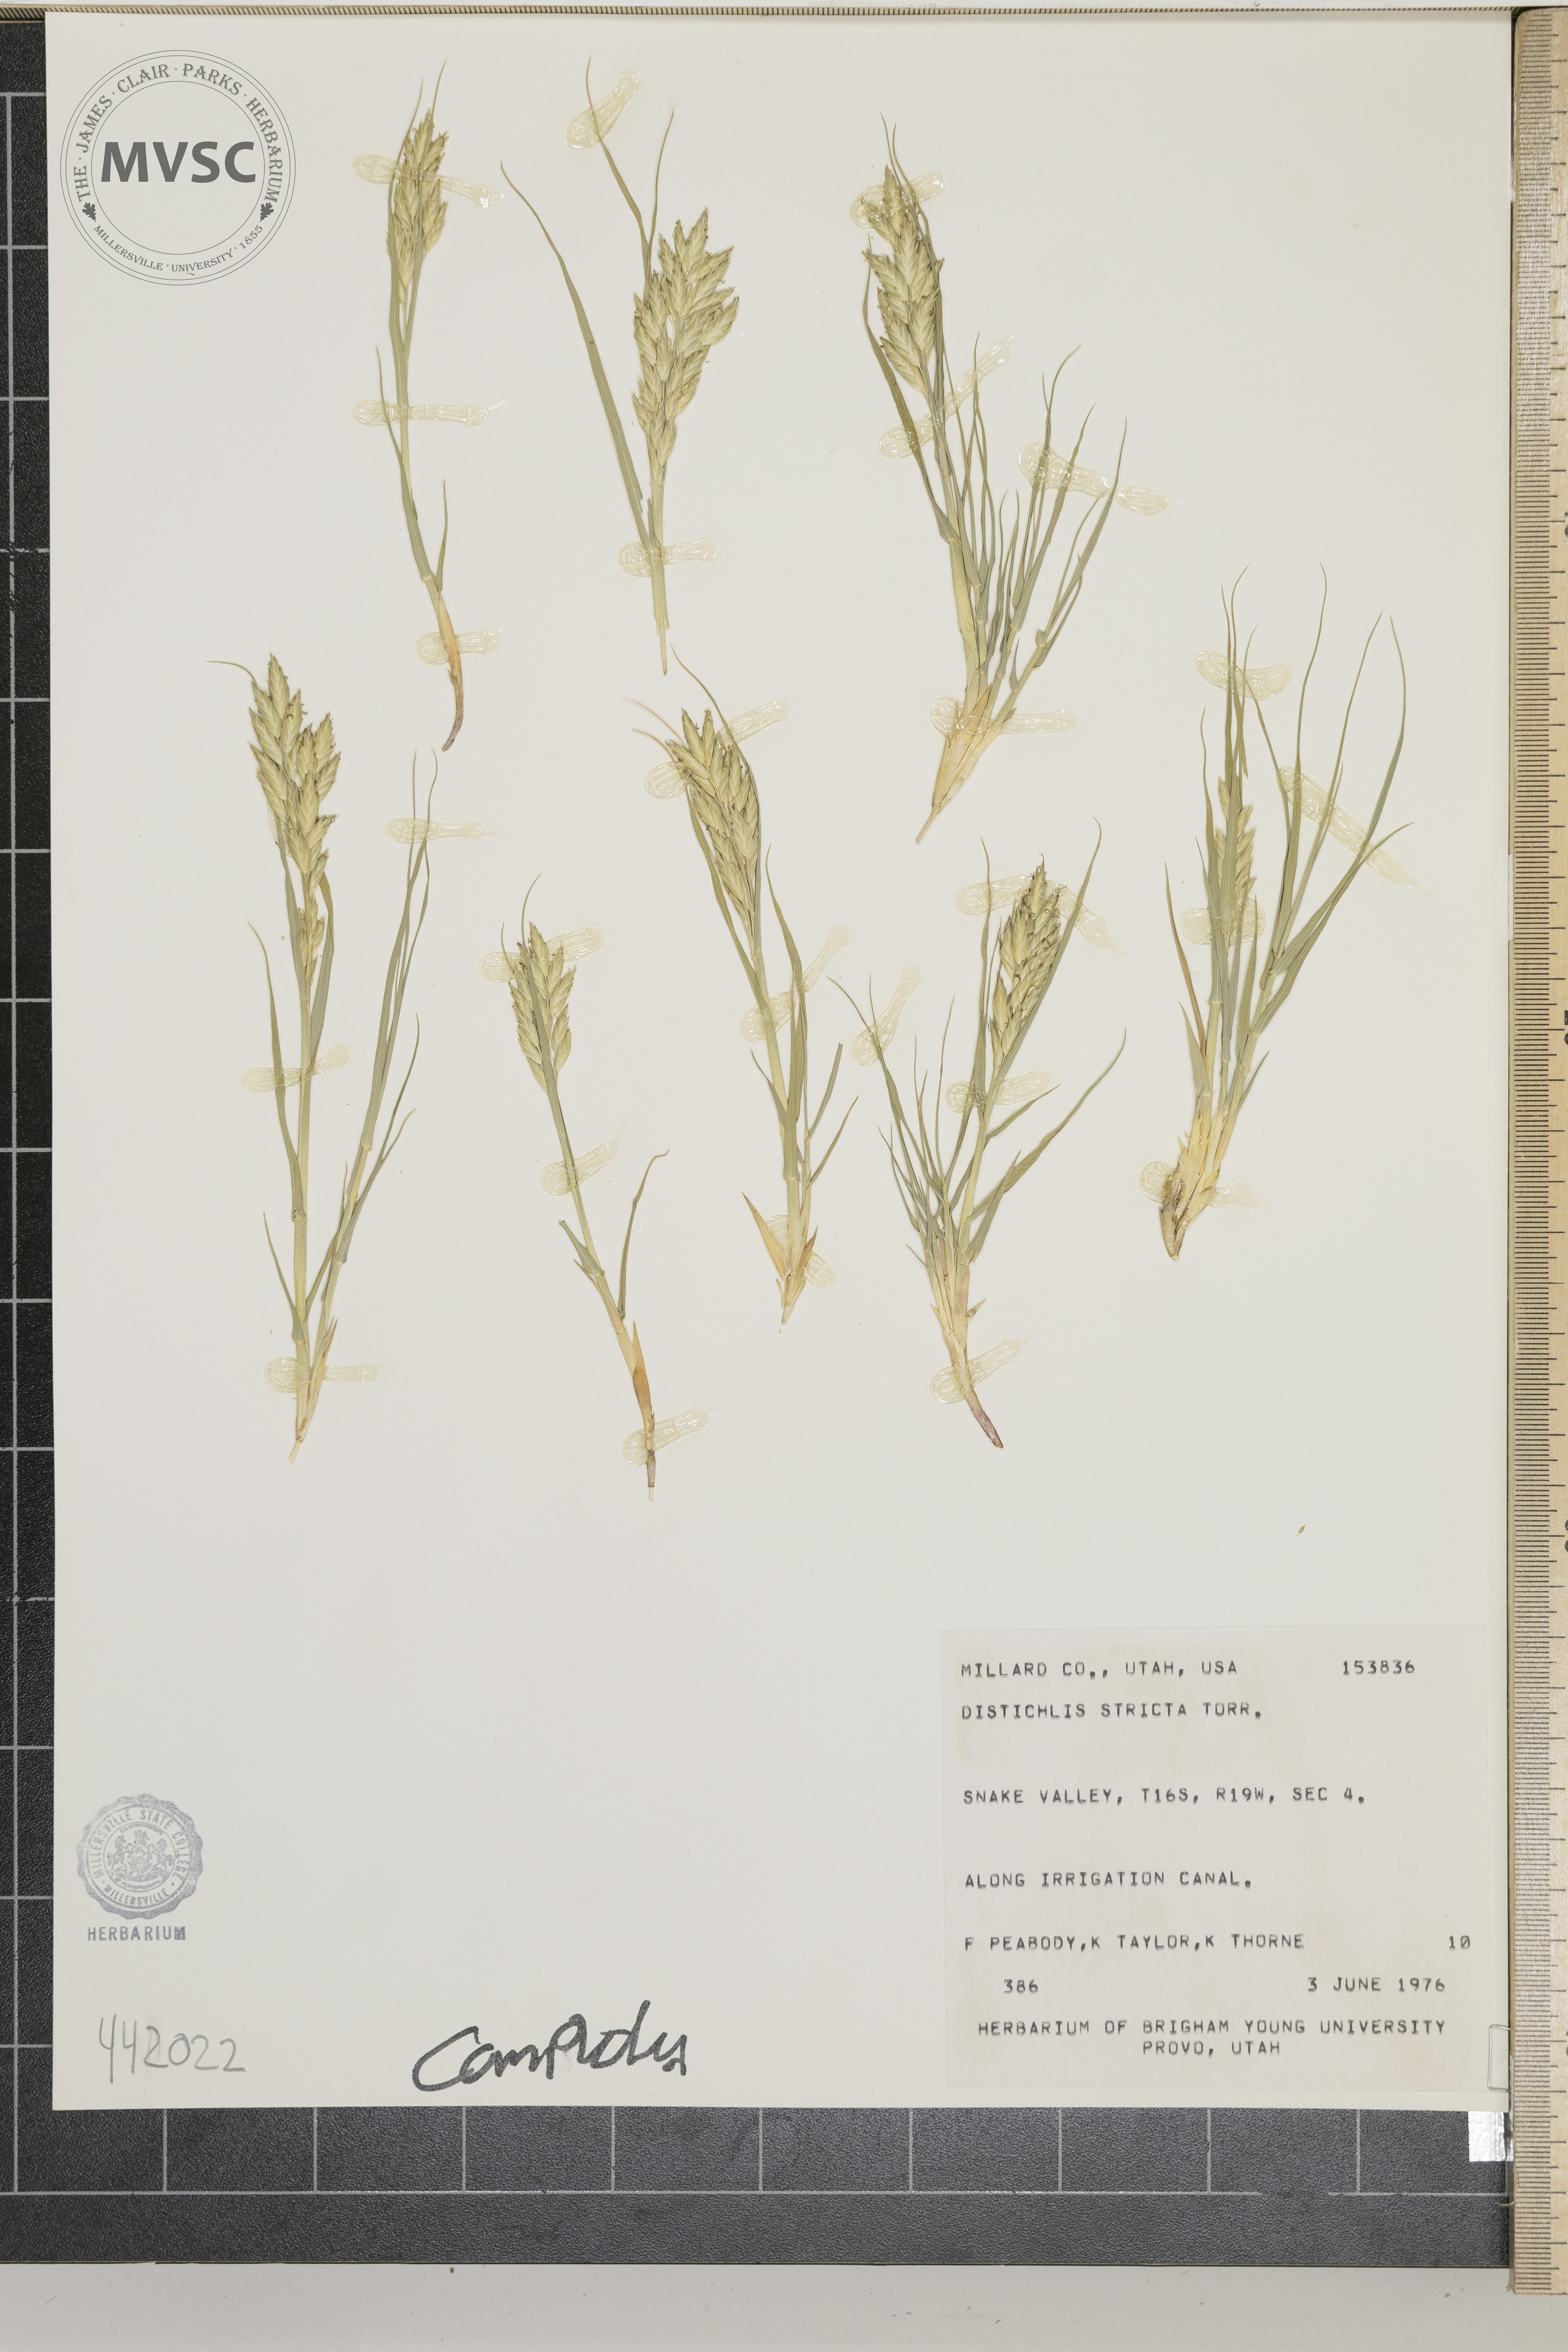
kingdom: Plantae
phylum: Tracheophyta
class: Liliopsida
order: Poales
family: Poaceae
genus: Distichlis
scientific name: Distichlis spicata
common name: Saltgrass
